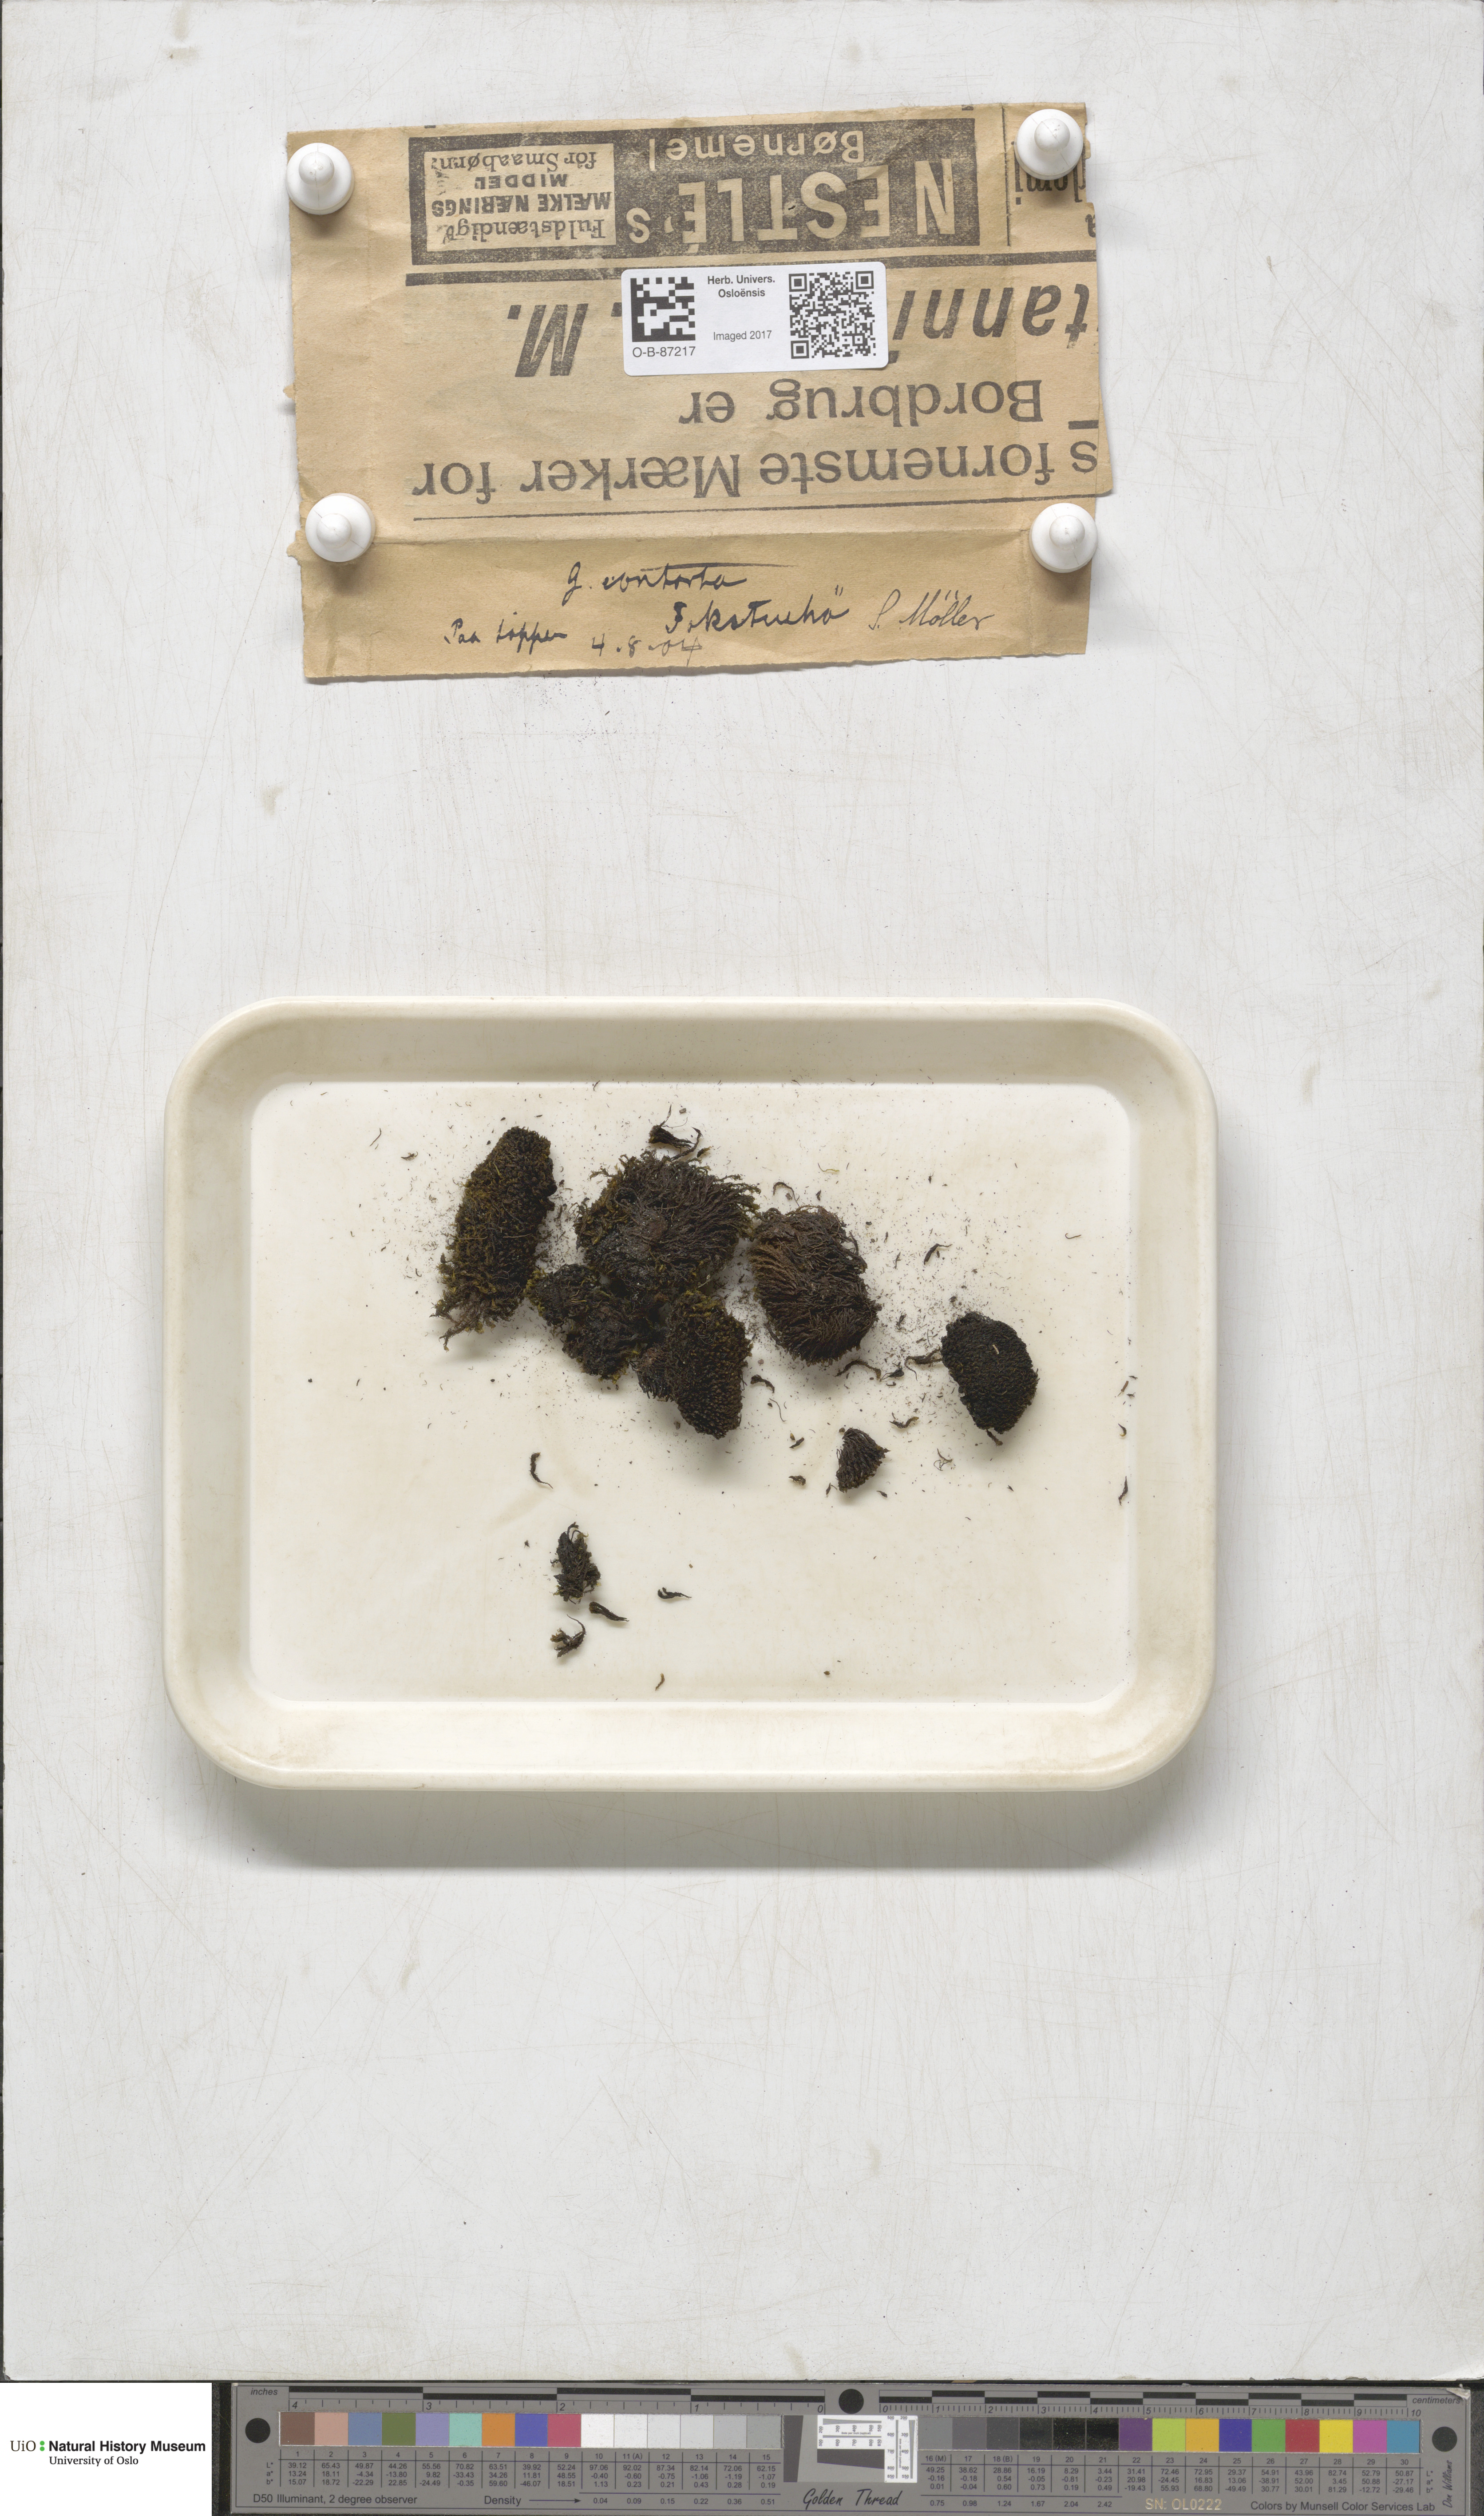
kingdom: Plantae
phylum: Bryophyta
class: Bryopsida
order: Grimmiales
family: Grimmiaceae
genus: Grimmia
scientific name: Grimmia incurva
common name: Black grimmia
